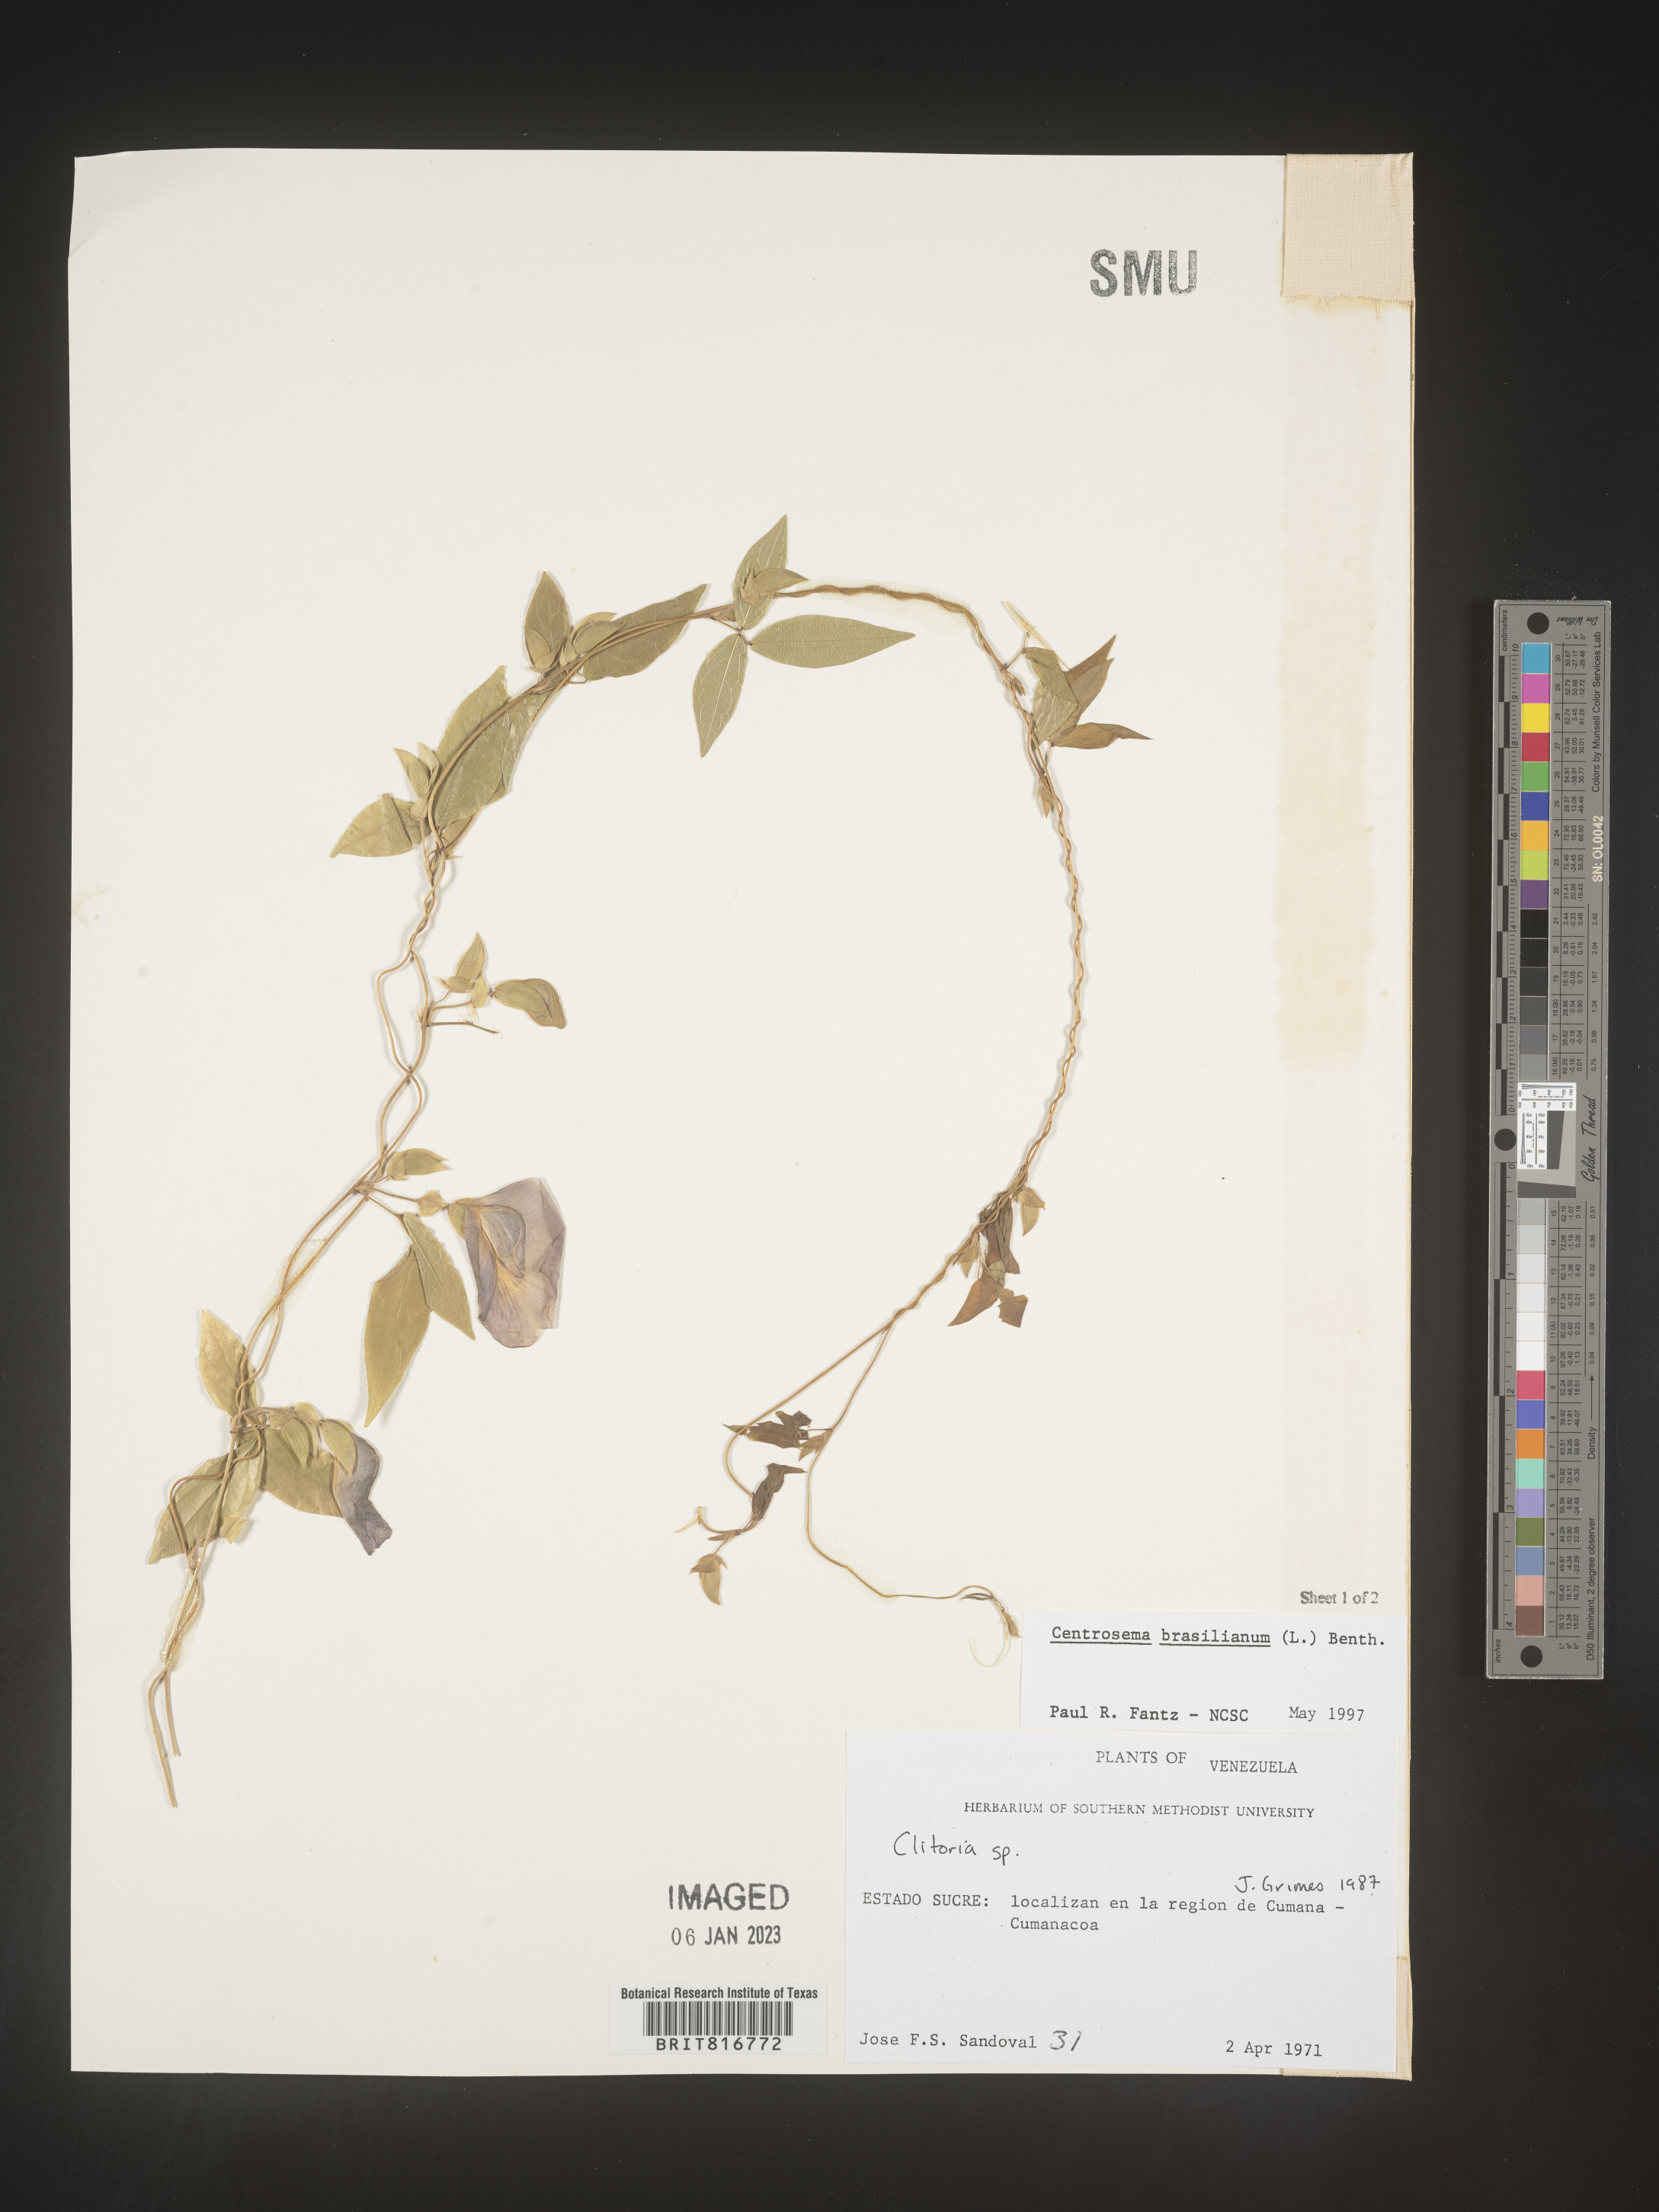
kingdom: Plantae
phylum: Tracheophyta
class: Magnoliopsida
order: Fabales
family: Fabaceae
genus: Centrosema
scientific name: Centrosema
